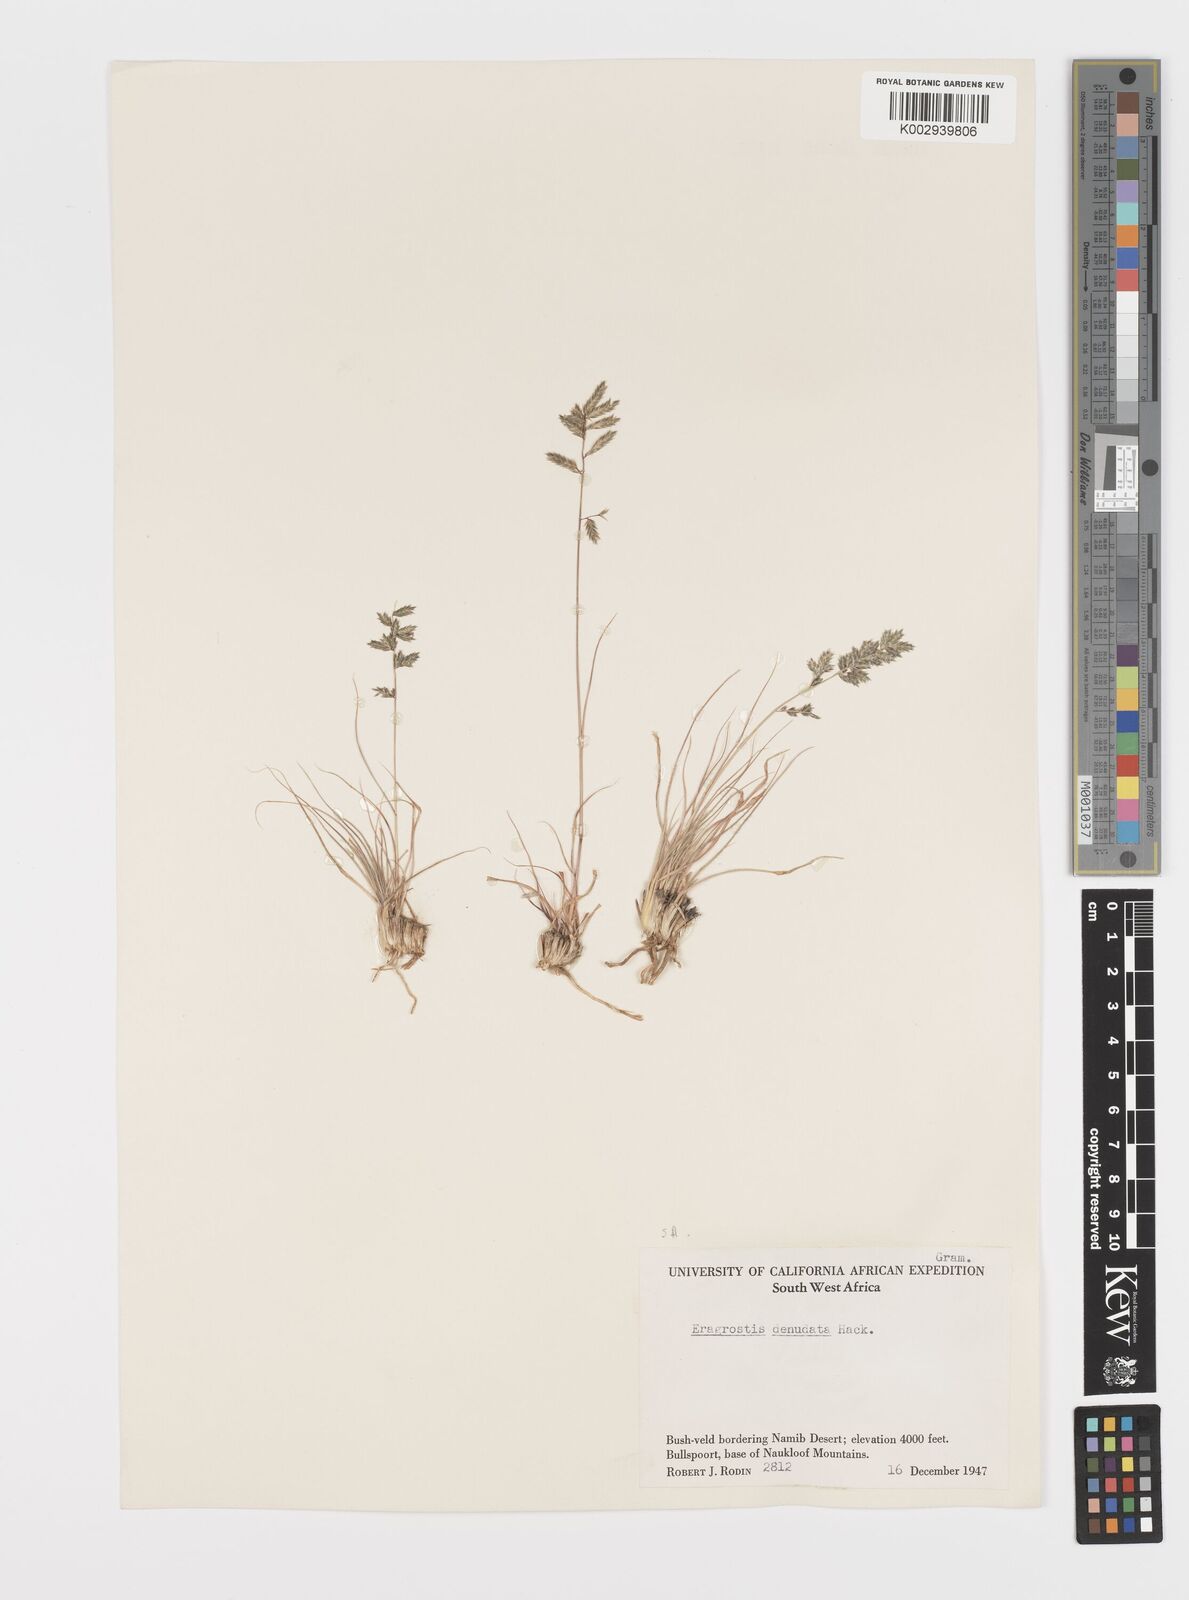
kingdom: Plantae
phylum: Tracheophyta
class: Liliopsida
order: Poales
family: Poaceae
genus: Eragrostis
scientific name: Eragrostis nindensis
